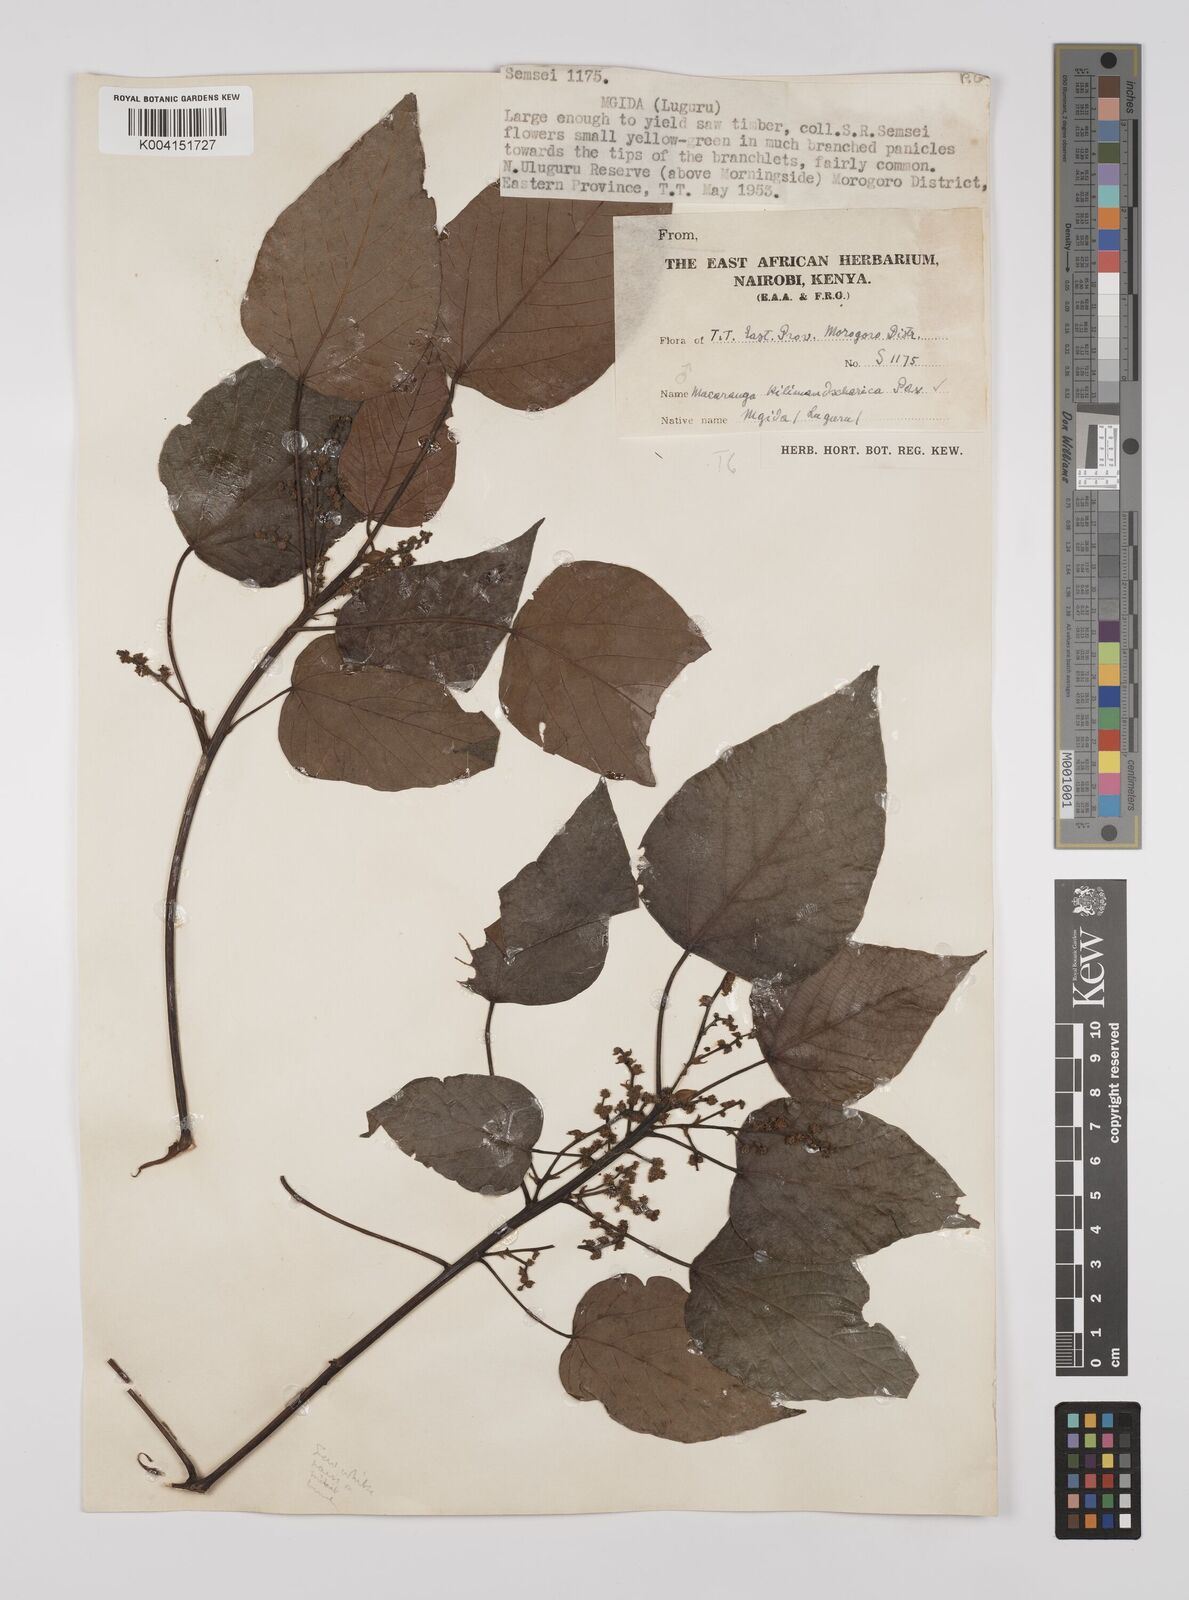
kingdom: Plantae
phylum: Tracheophyta
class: Magnoliopsida
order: Malpighiales
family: Euphorbiaceae
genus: Macaranga
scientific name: Macaranga kilimandscharica
